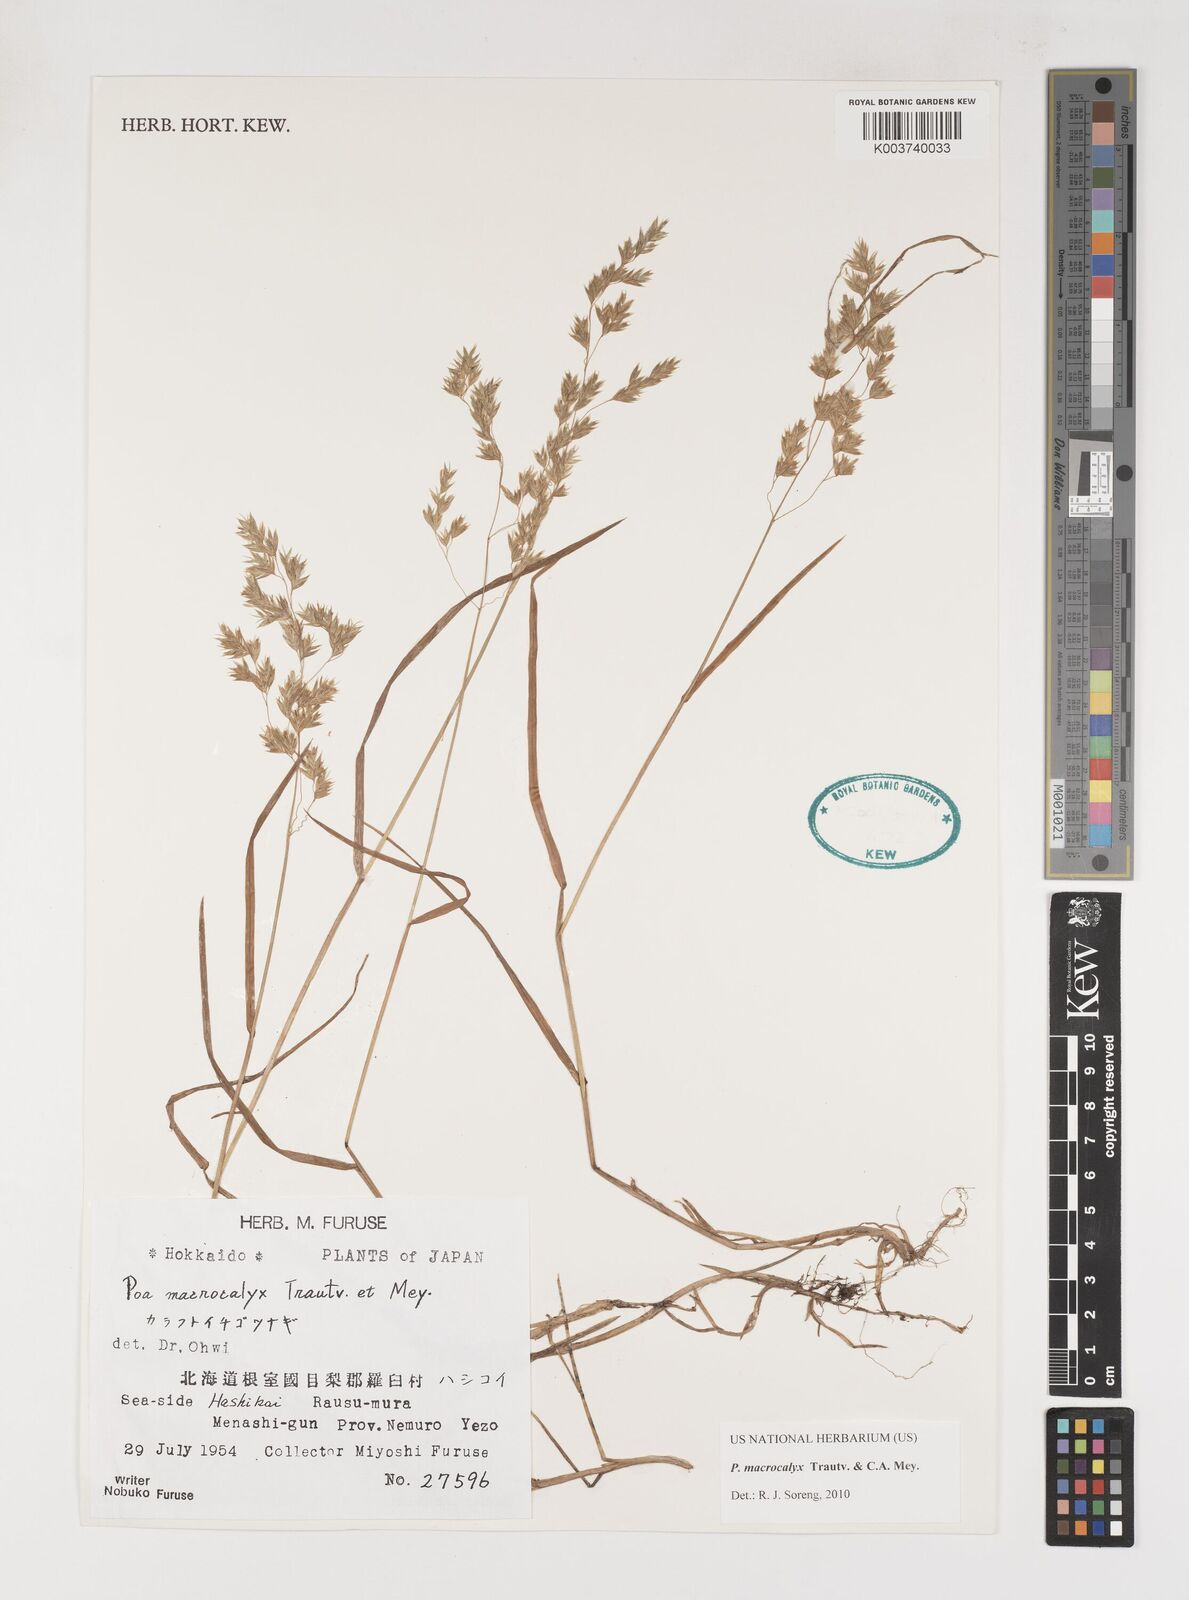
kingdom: Plantae
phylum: Tracheophyta
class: Liliopsida
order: Poales
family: Poaceae
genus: Poa
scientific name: Poa macrocalyx
